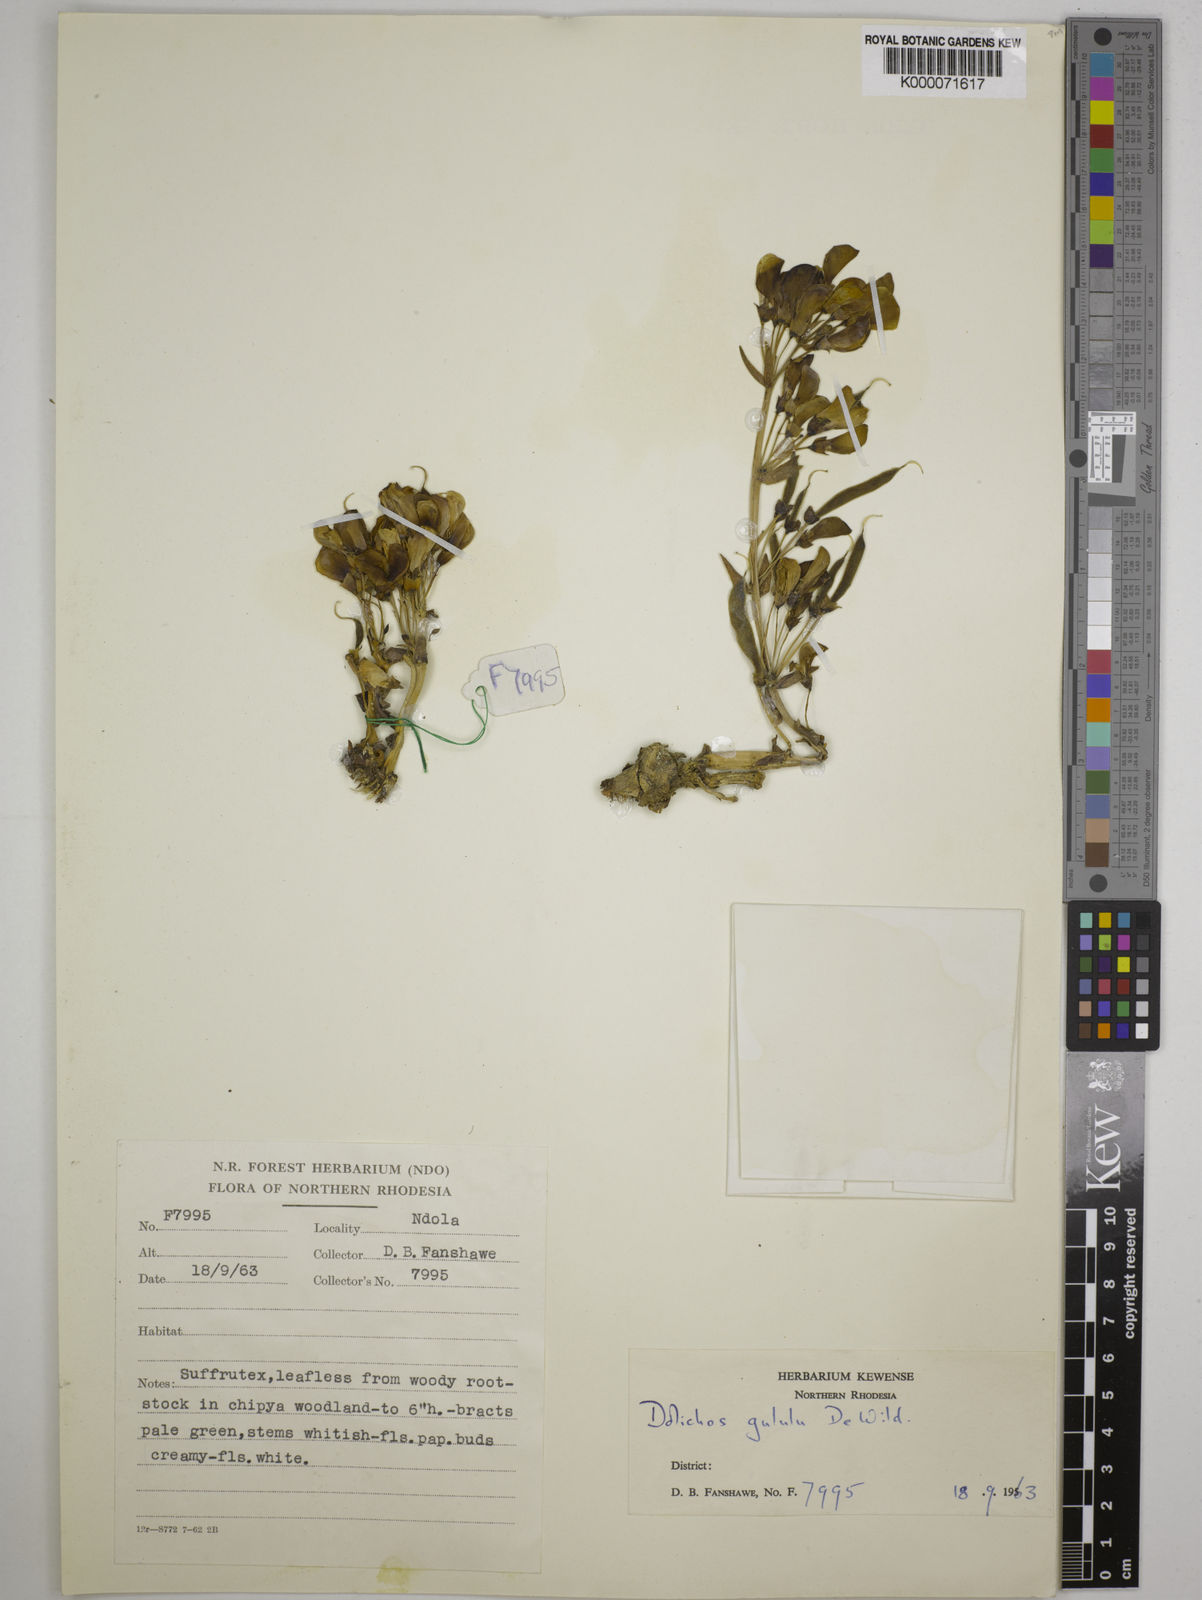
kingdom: Plantae
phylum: Tracheophyta
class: Magnoliopsida
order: Fabales
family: Fabaceae
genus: Dolichos
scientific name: Dolichos gululu
